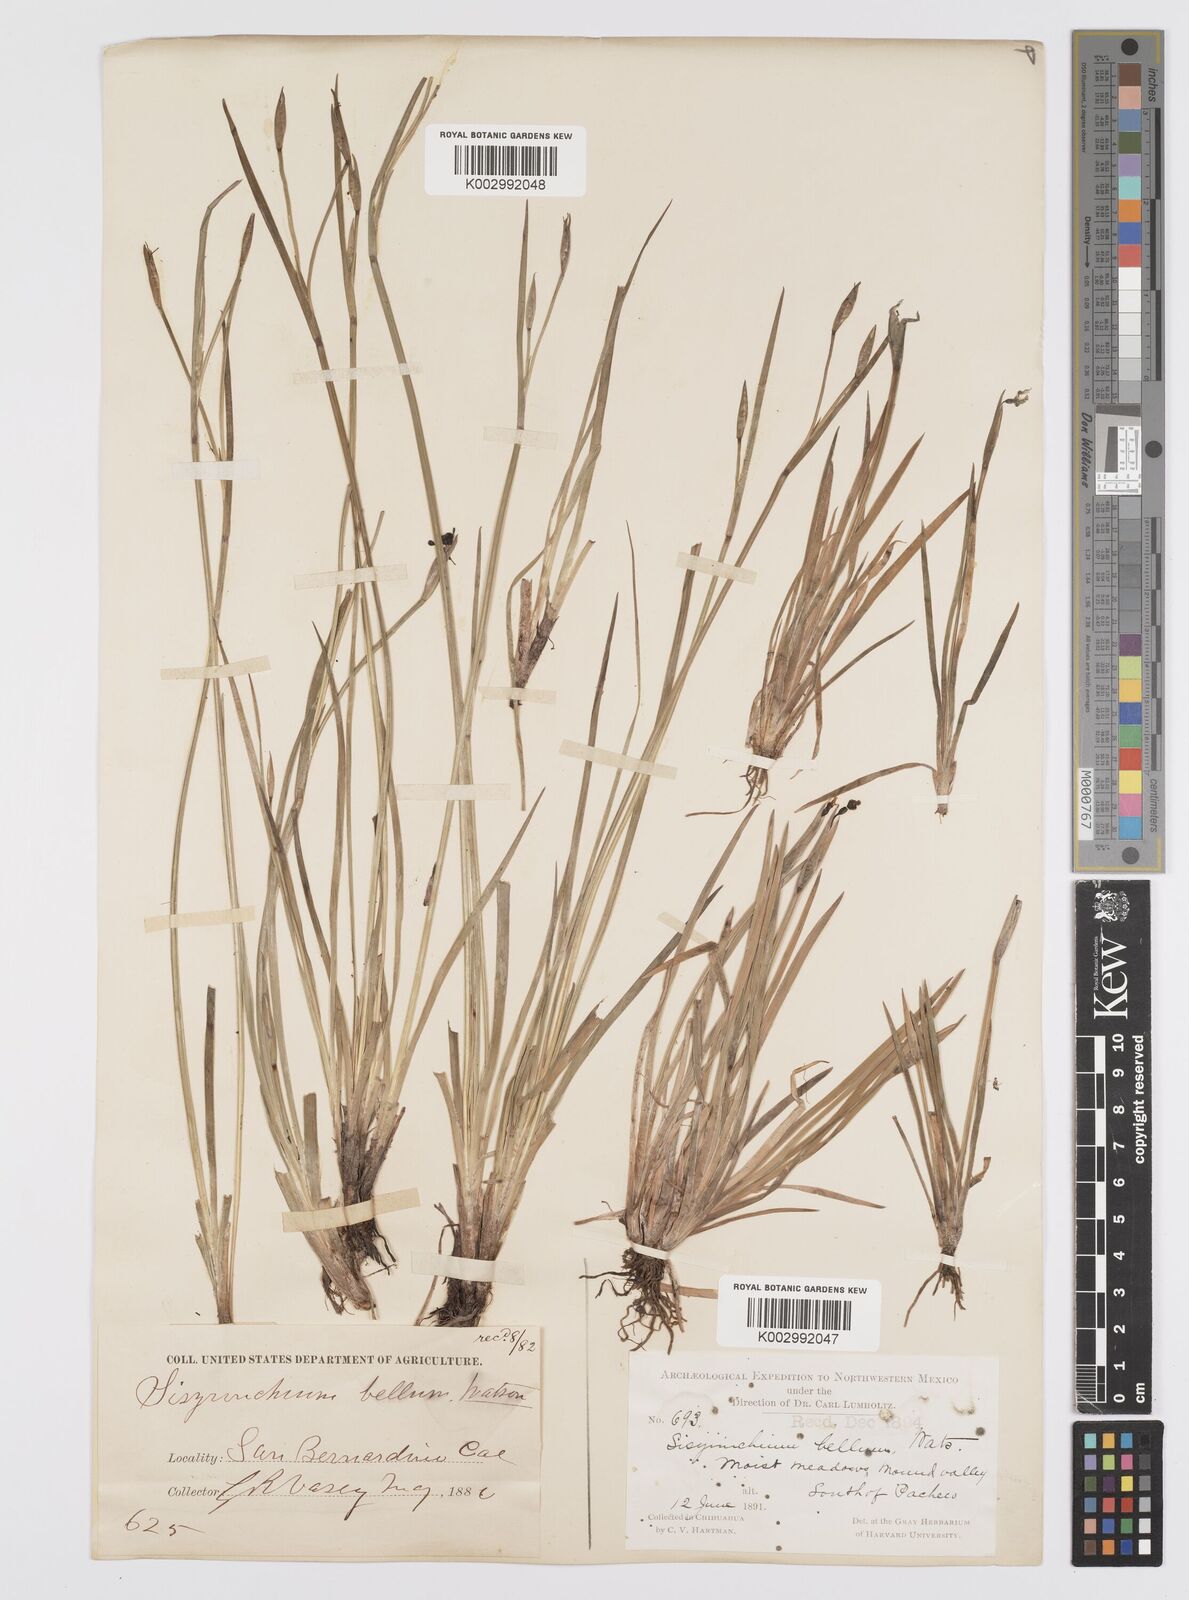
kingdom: Plantae
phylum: Tracheophyta
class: Liliopsida
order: Asparagales
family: Iridaceae
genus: Sisyrinchium
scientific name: Sisyrinchium
